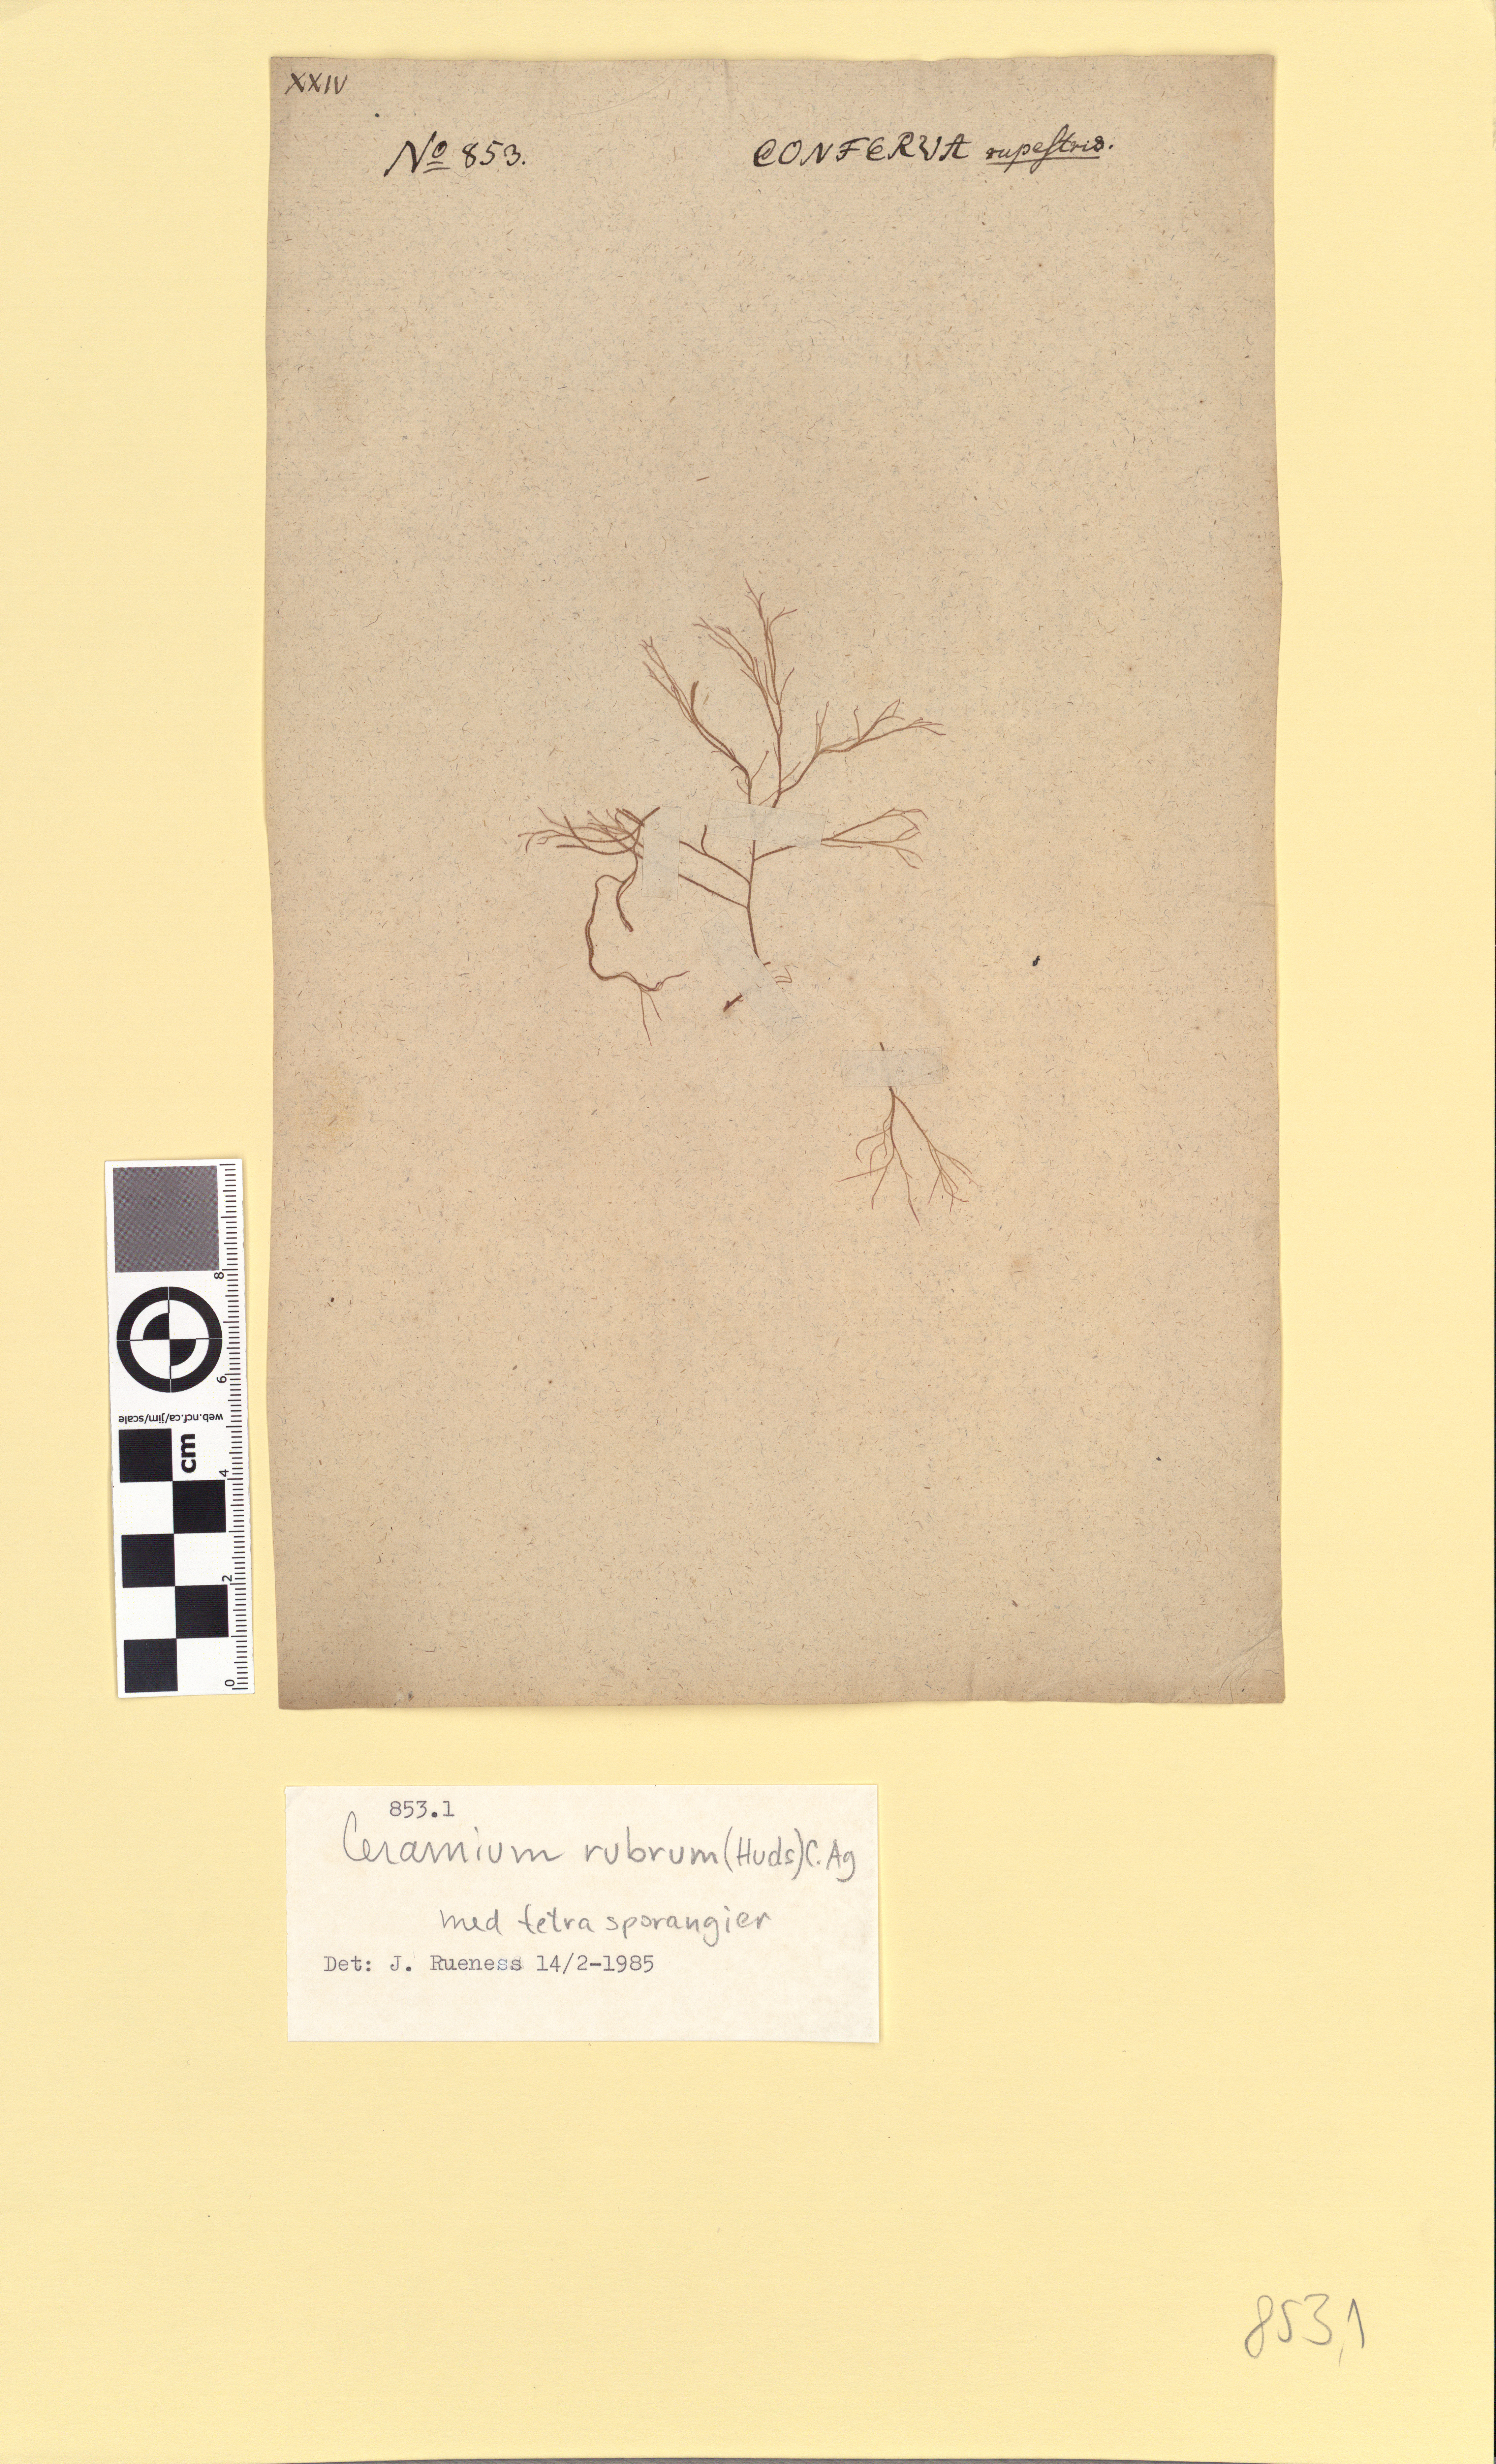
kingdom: Plantae
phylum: Rhodophyta
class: Florideophyceae
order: Ceramiales
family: Ceramiaceae
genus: Ceramium
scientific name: Ceramium virgatum
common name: Red hornweed
